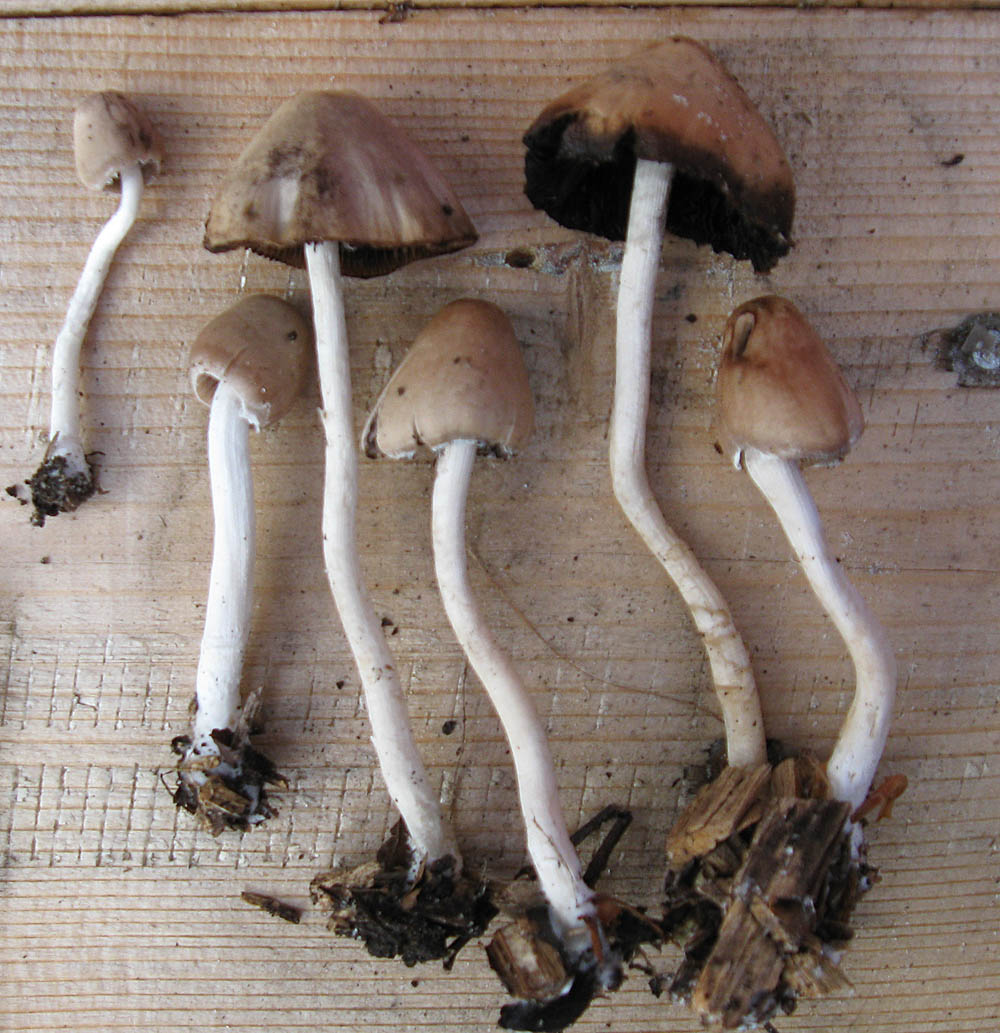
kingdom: Fungi
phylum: Basidiomycota
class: Agaricomycetes
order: Agaricales
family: Psathyrellaceae
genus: Coprinopsis
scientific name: Coprinopsis marcescibilis
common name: ruderat-blækhat
